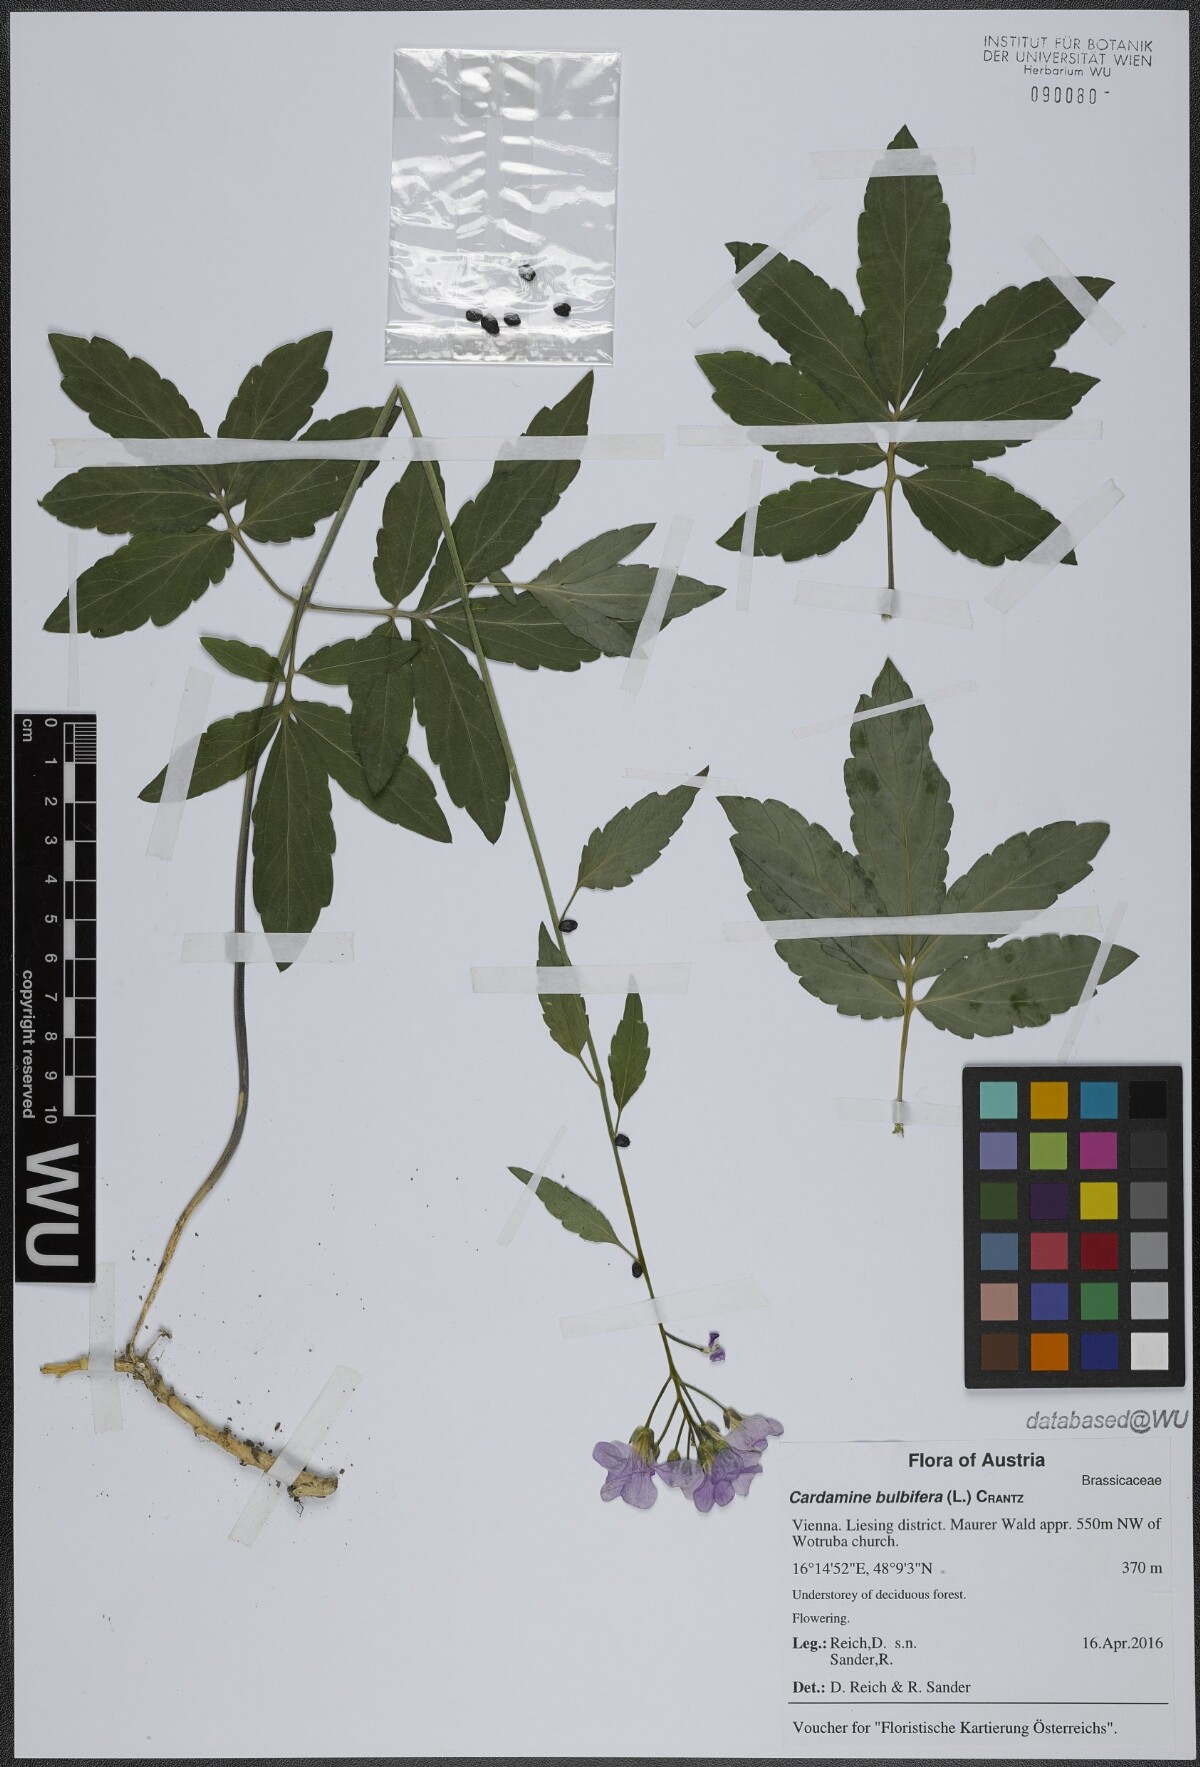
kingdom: Plantae
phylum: Tracheophyta
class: Magnoliopsida
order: Brassicales
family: Brassicaceae
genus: Cardamine
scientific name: Cardamine bulbifera
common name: Coralroot bittercress
